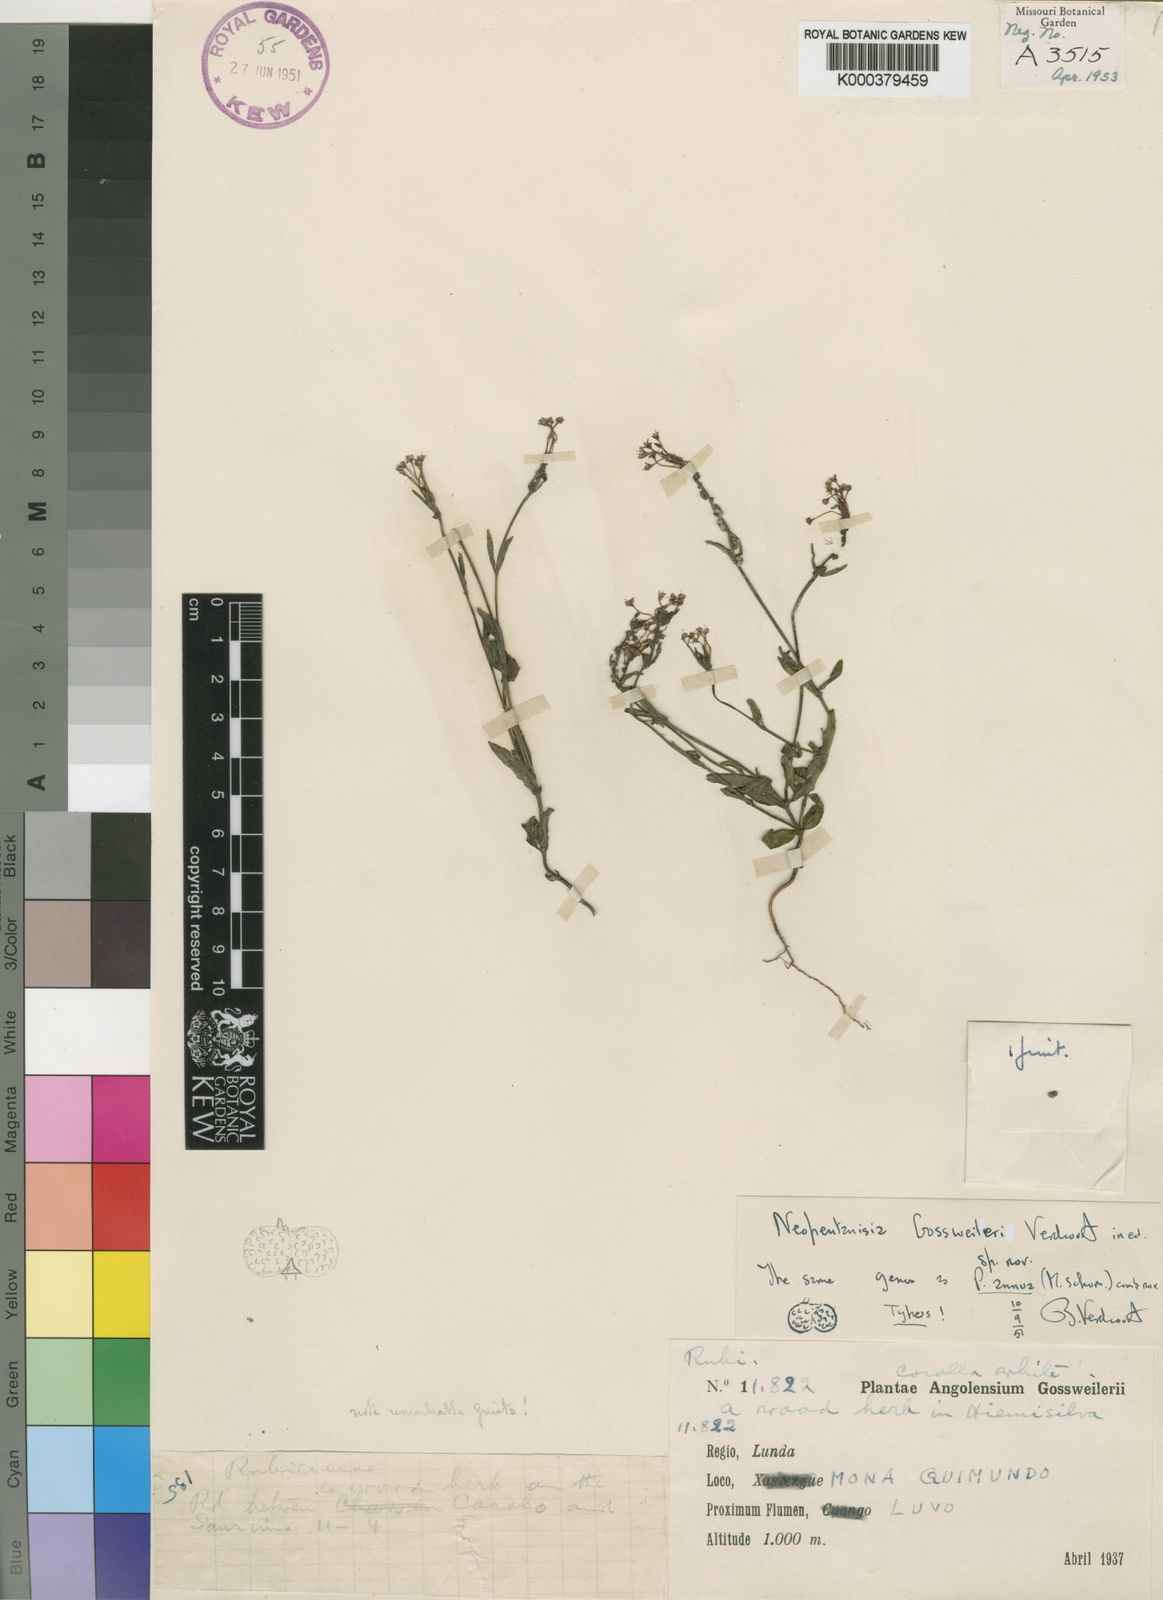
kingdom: Plantae
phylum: Tracheophyta
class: Magnoliopsida
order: Gentianales
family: Rubiaceae
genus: Pentanisia
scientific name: Pentanisia
